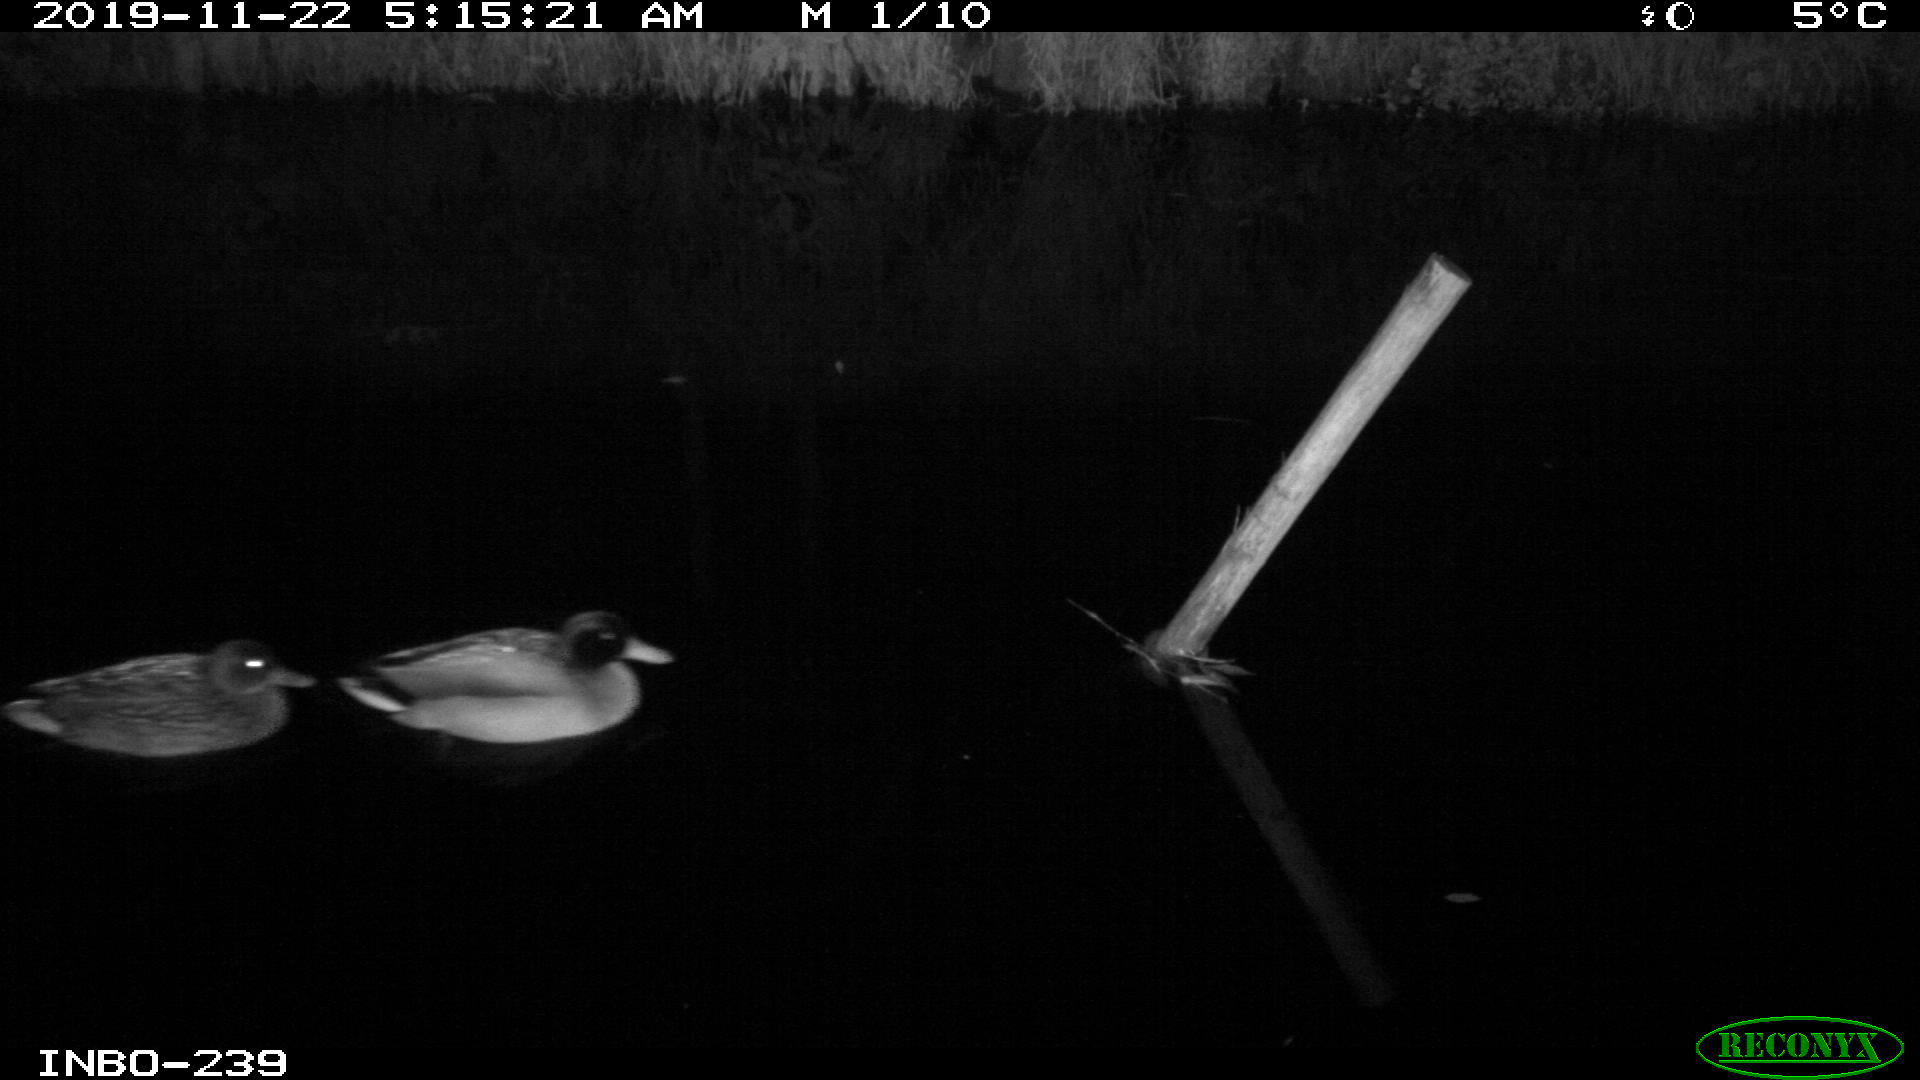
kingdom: Animalia
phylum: Chordata
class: Aves
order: Anseriformes
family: Anatidae
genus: Anas
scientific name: Anas platyrhynchos
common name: Mallard
